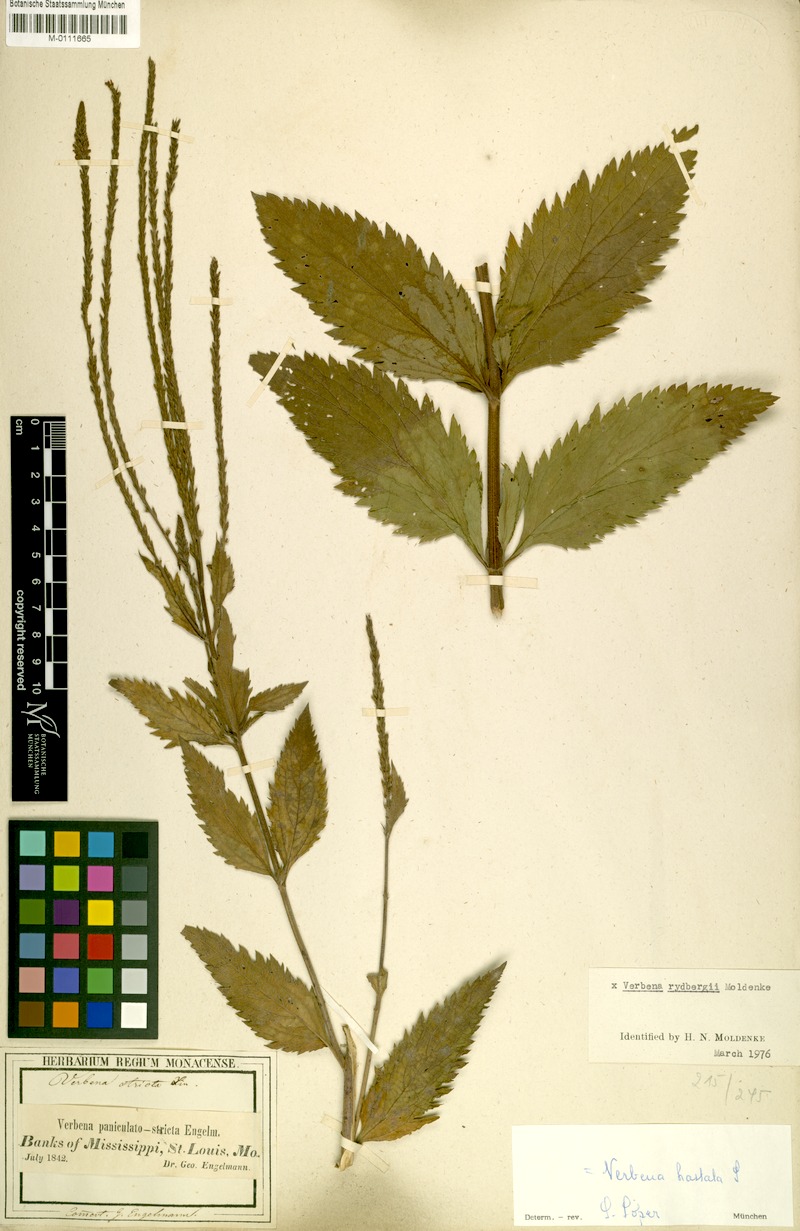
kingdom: Plantae
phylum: Tracheophyta
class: Magnoliopsida
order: Lamiales
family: Verbenaceae
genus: Verbena
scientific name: Verbena rydbergii
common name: Ryberg's vervain
